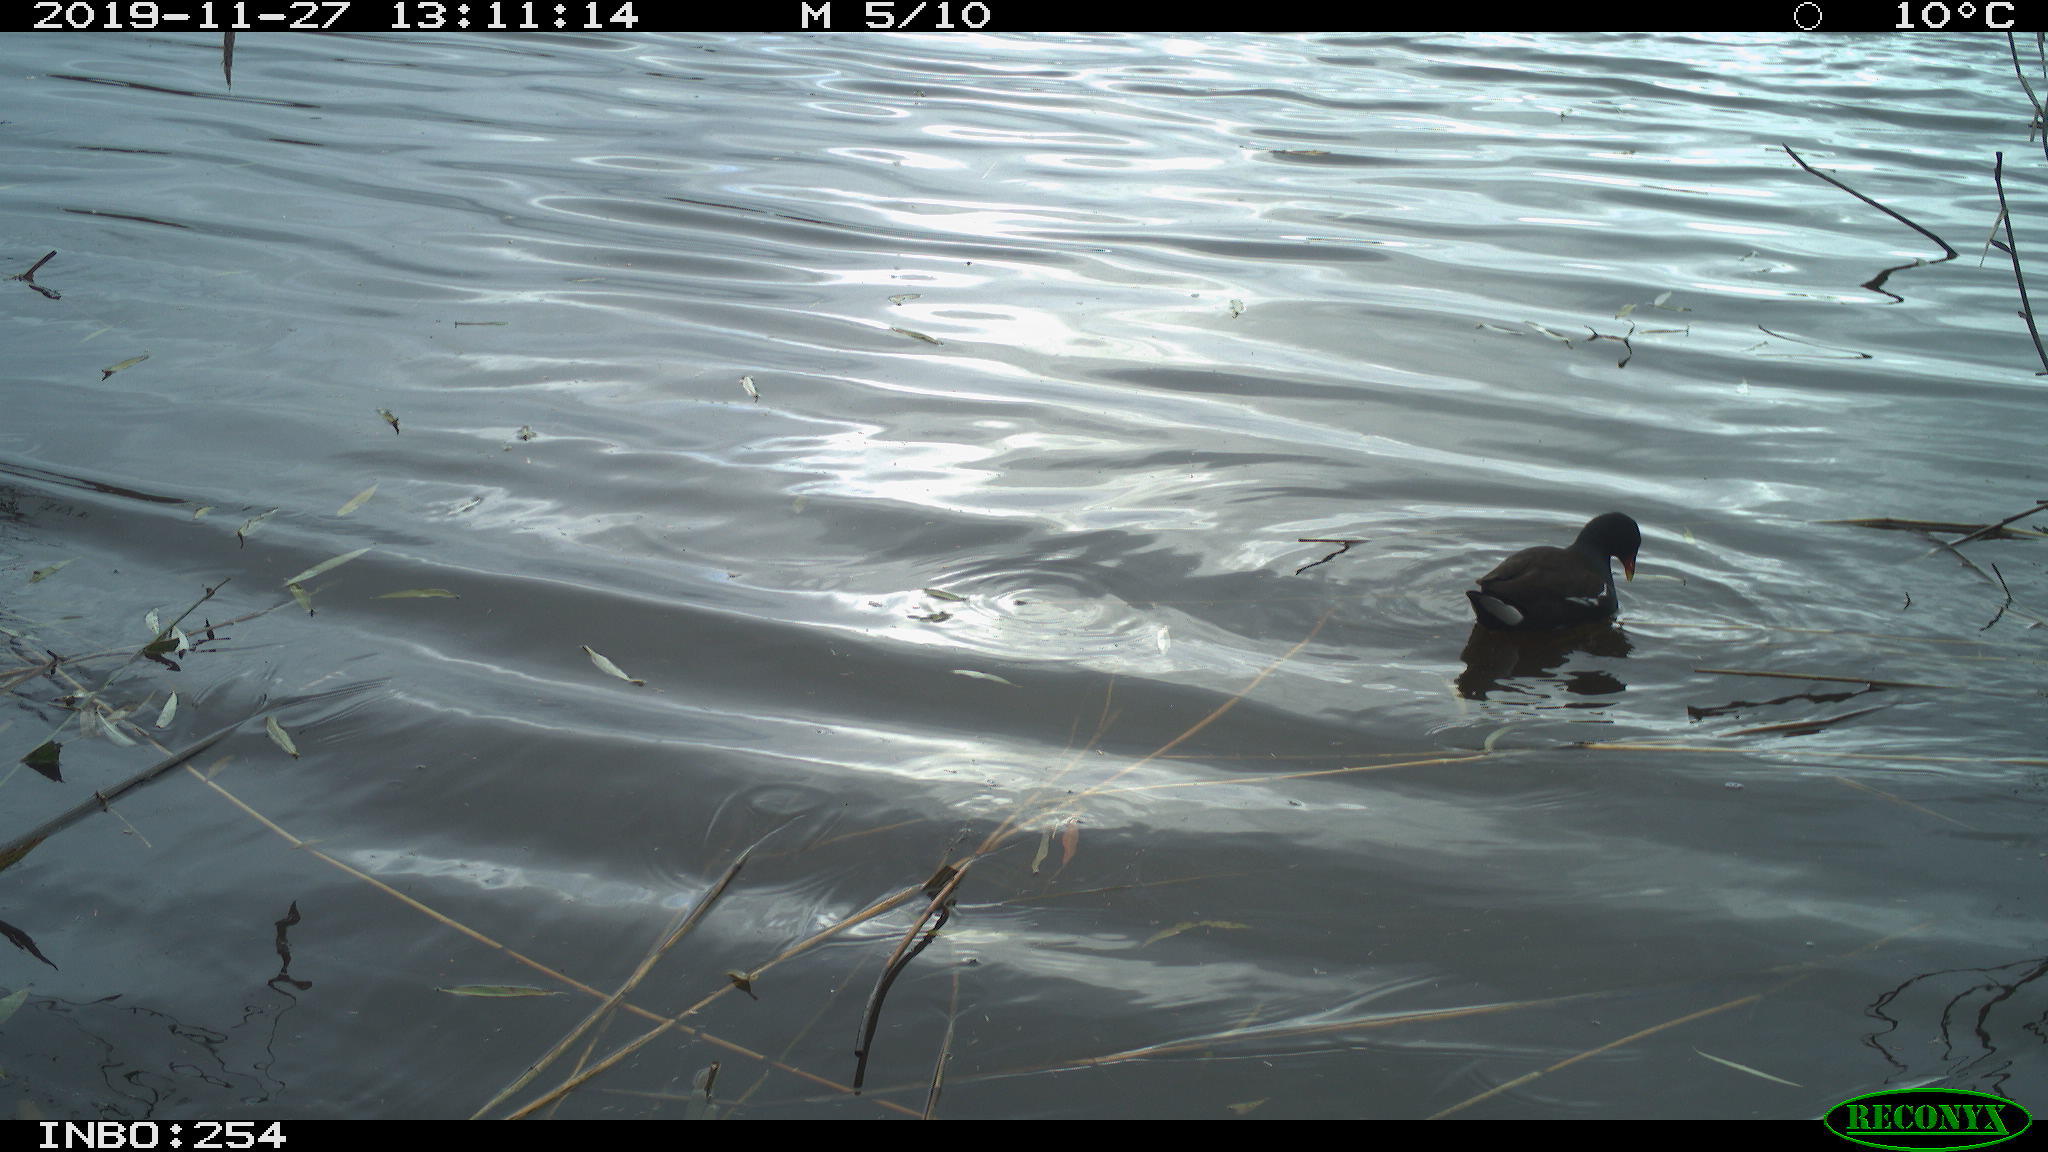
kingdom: Animalia
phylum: Chordata
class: Aves
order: Gruiformes
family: Rallidae
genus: Gallinula
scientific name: Gallinula chloropus
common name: Common moorhen
